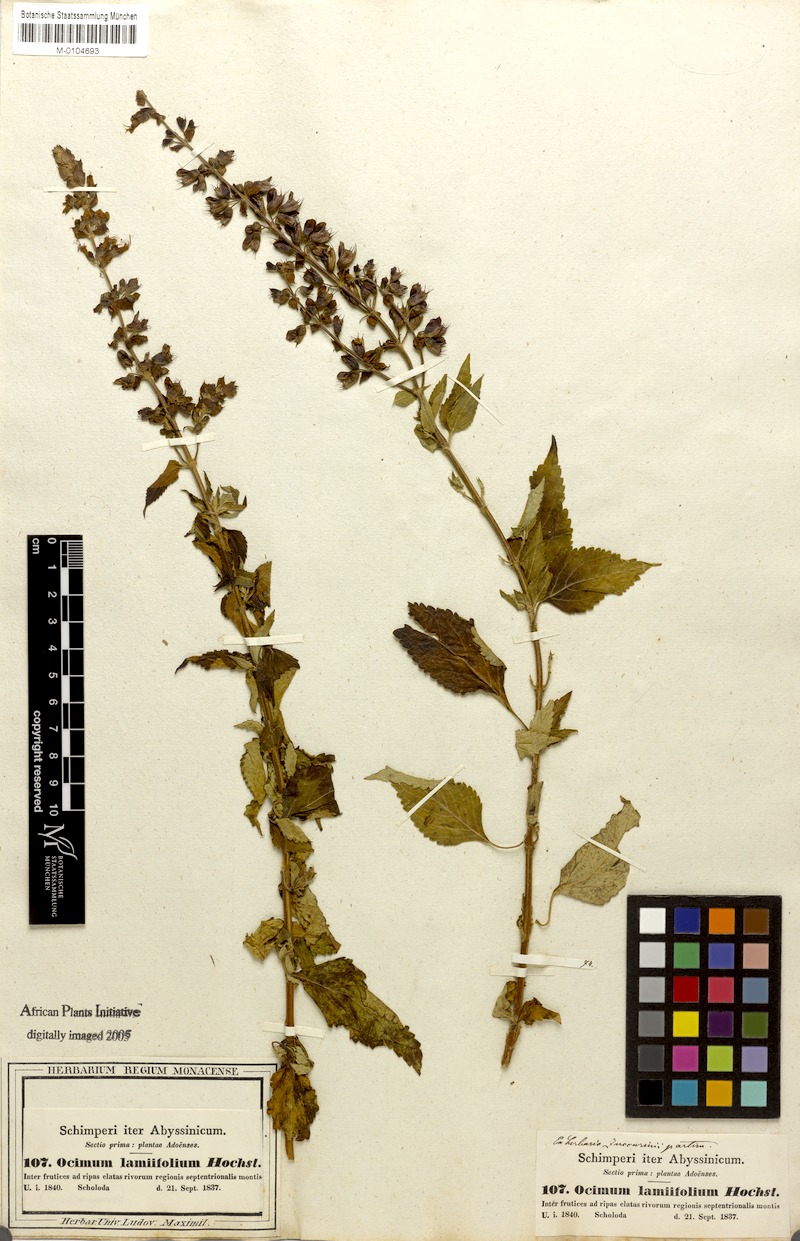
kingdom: Plantae
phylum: Tracheophyta
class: Magnoliopsida
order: Lamiales
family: Lamiaceae
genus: Ocimum
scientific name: Ocimum lamiifolium
